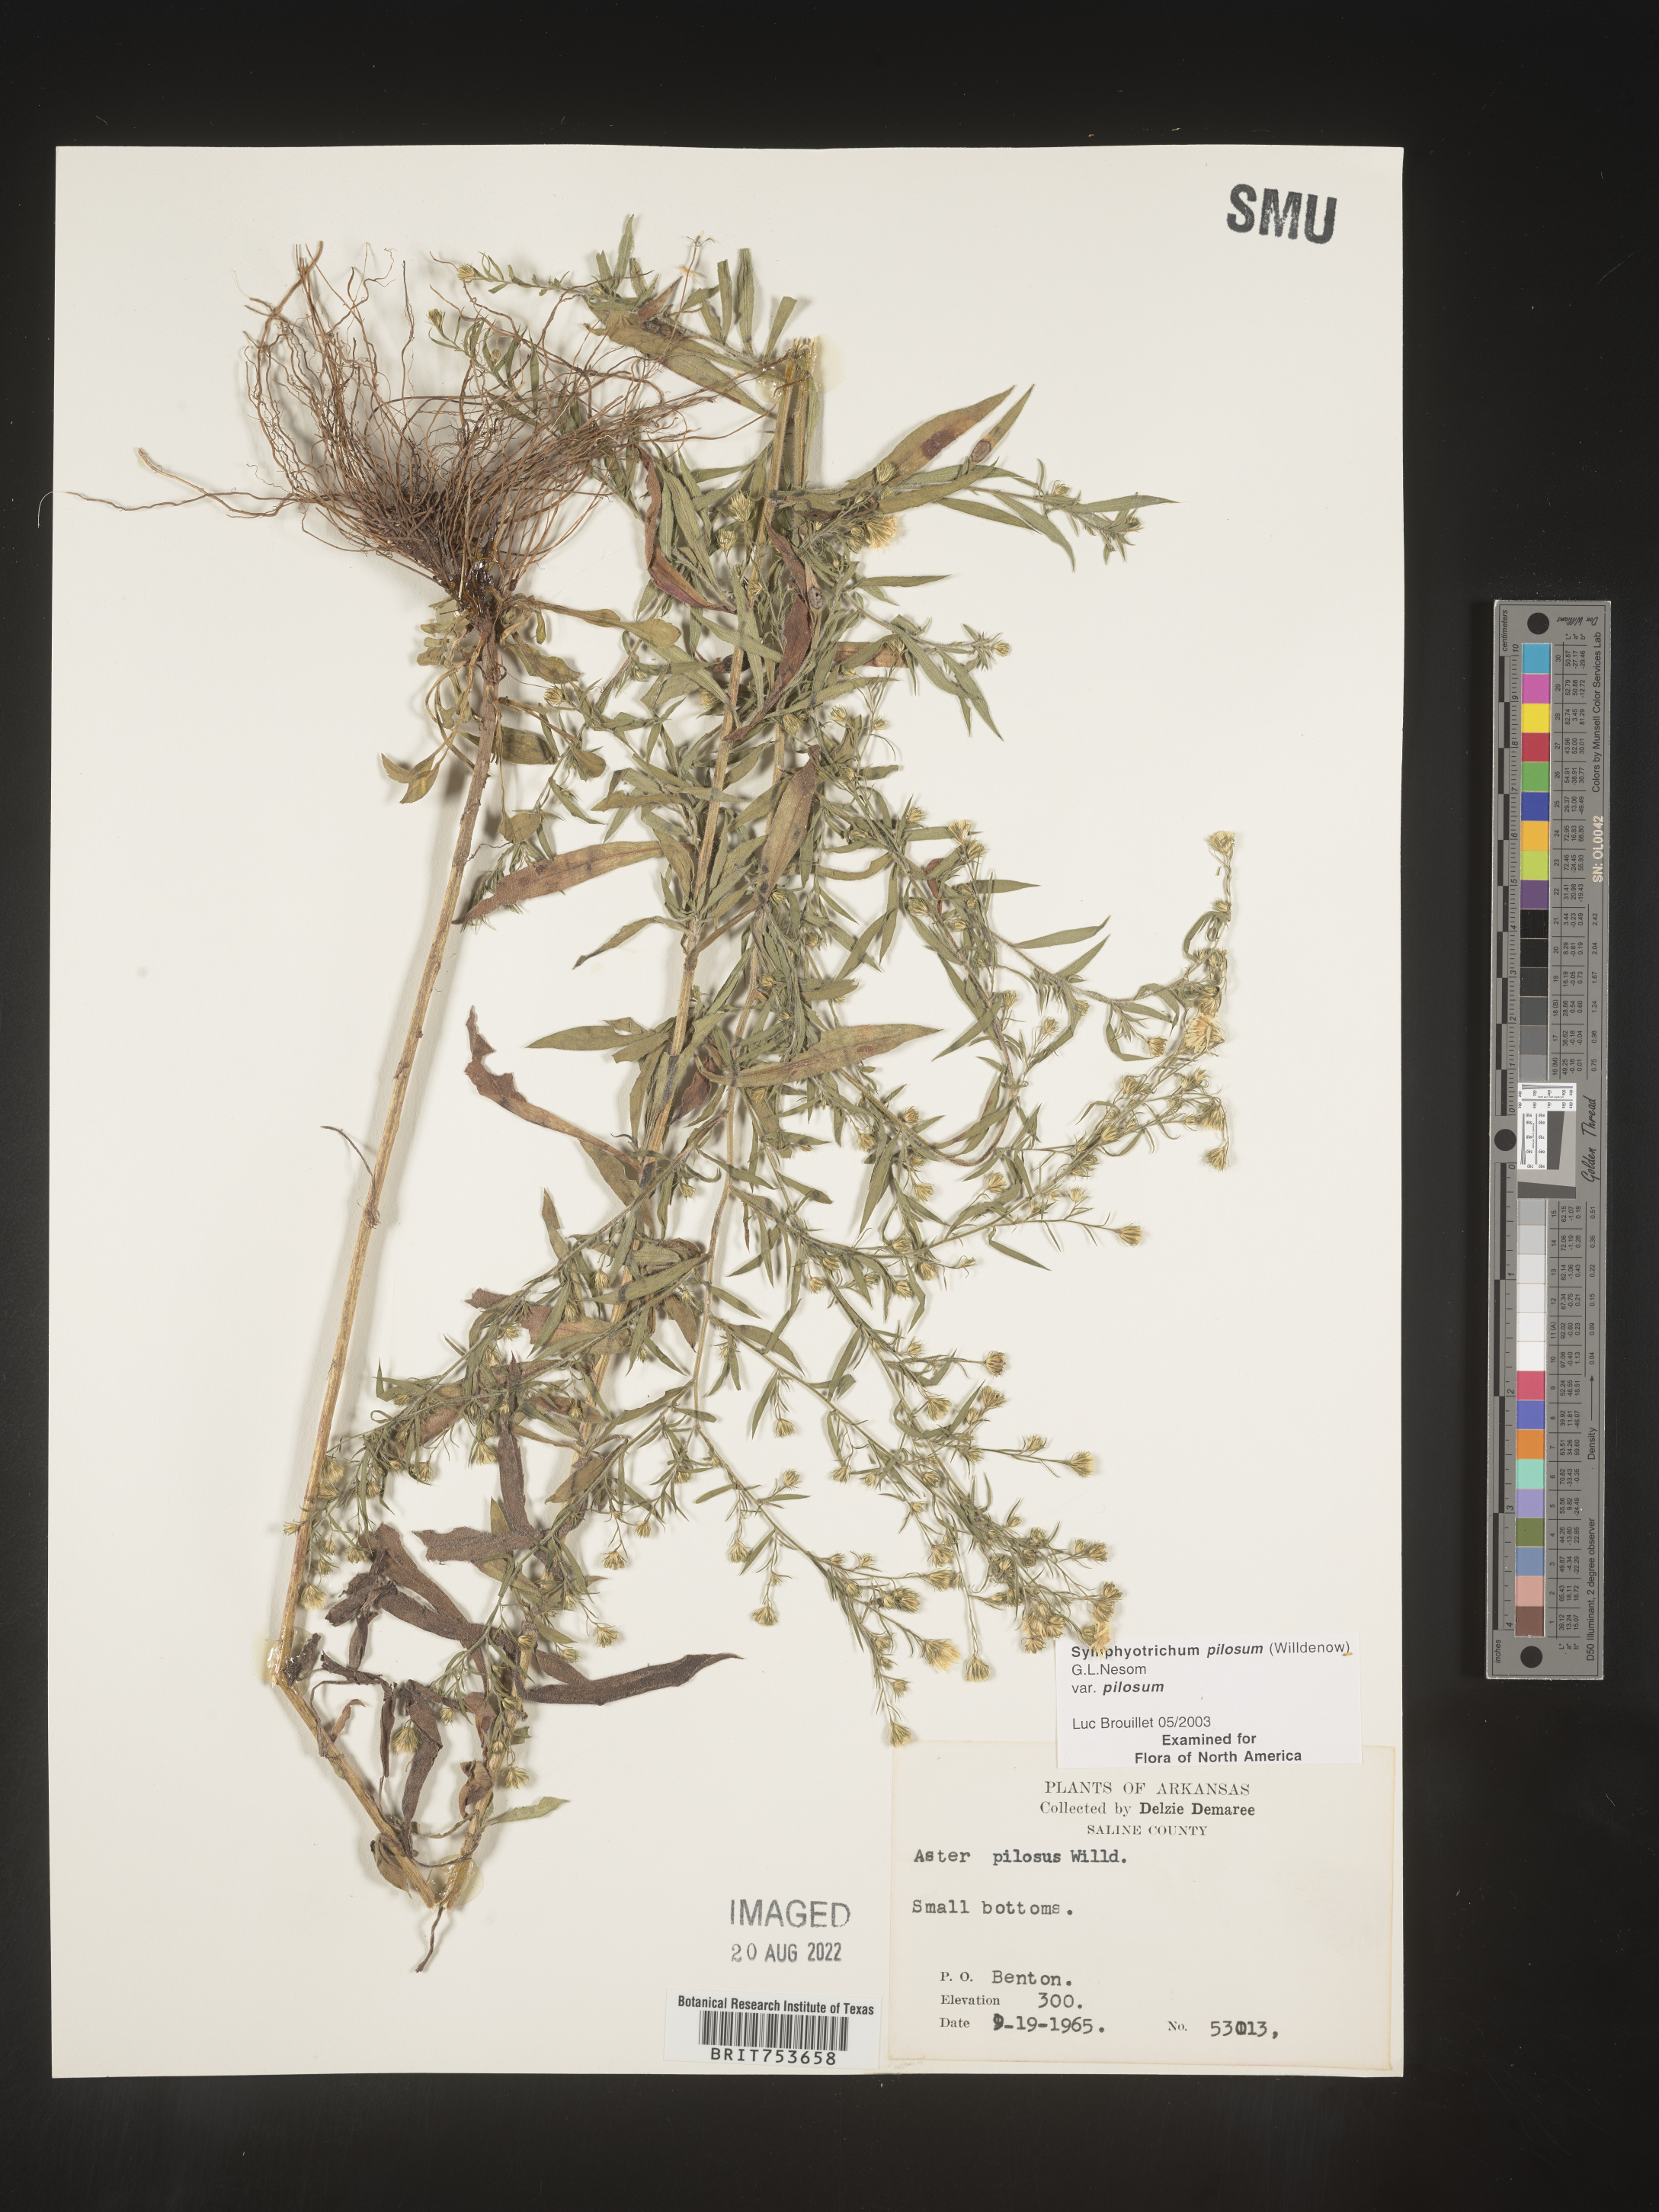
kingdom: Plantae
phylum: Tracheophyta
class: Magnoliopsida
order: Asterales
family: Asteraceae
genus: Symphyotrichum
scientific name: Symphyotrichum pilosum
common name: Awl aster
